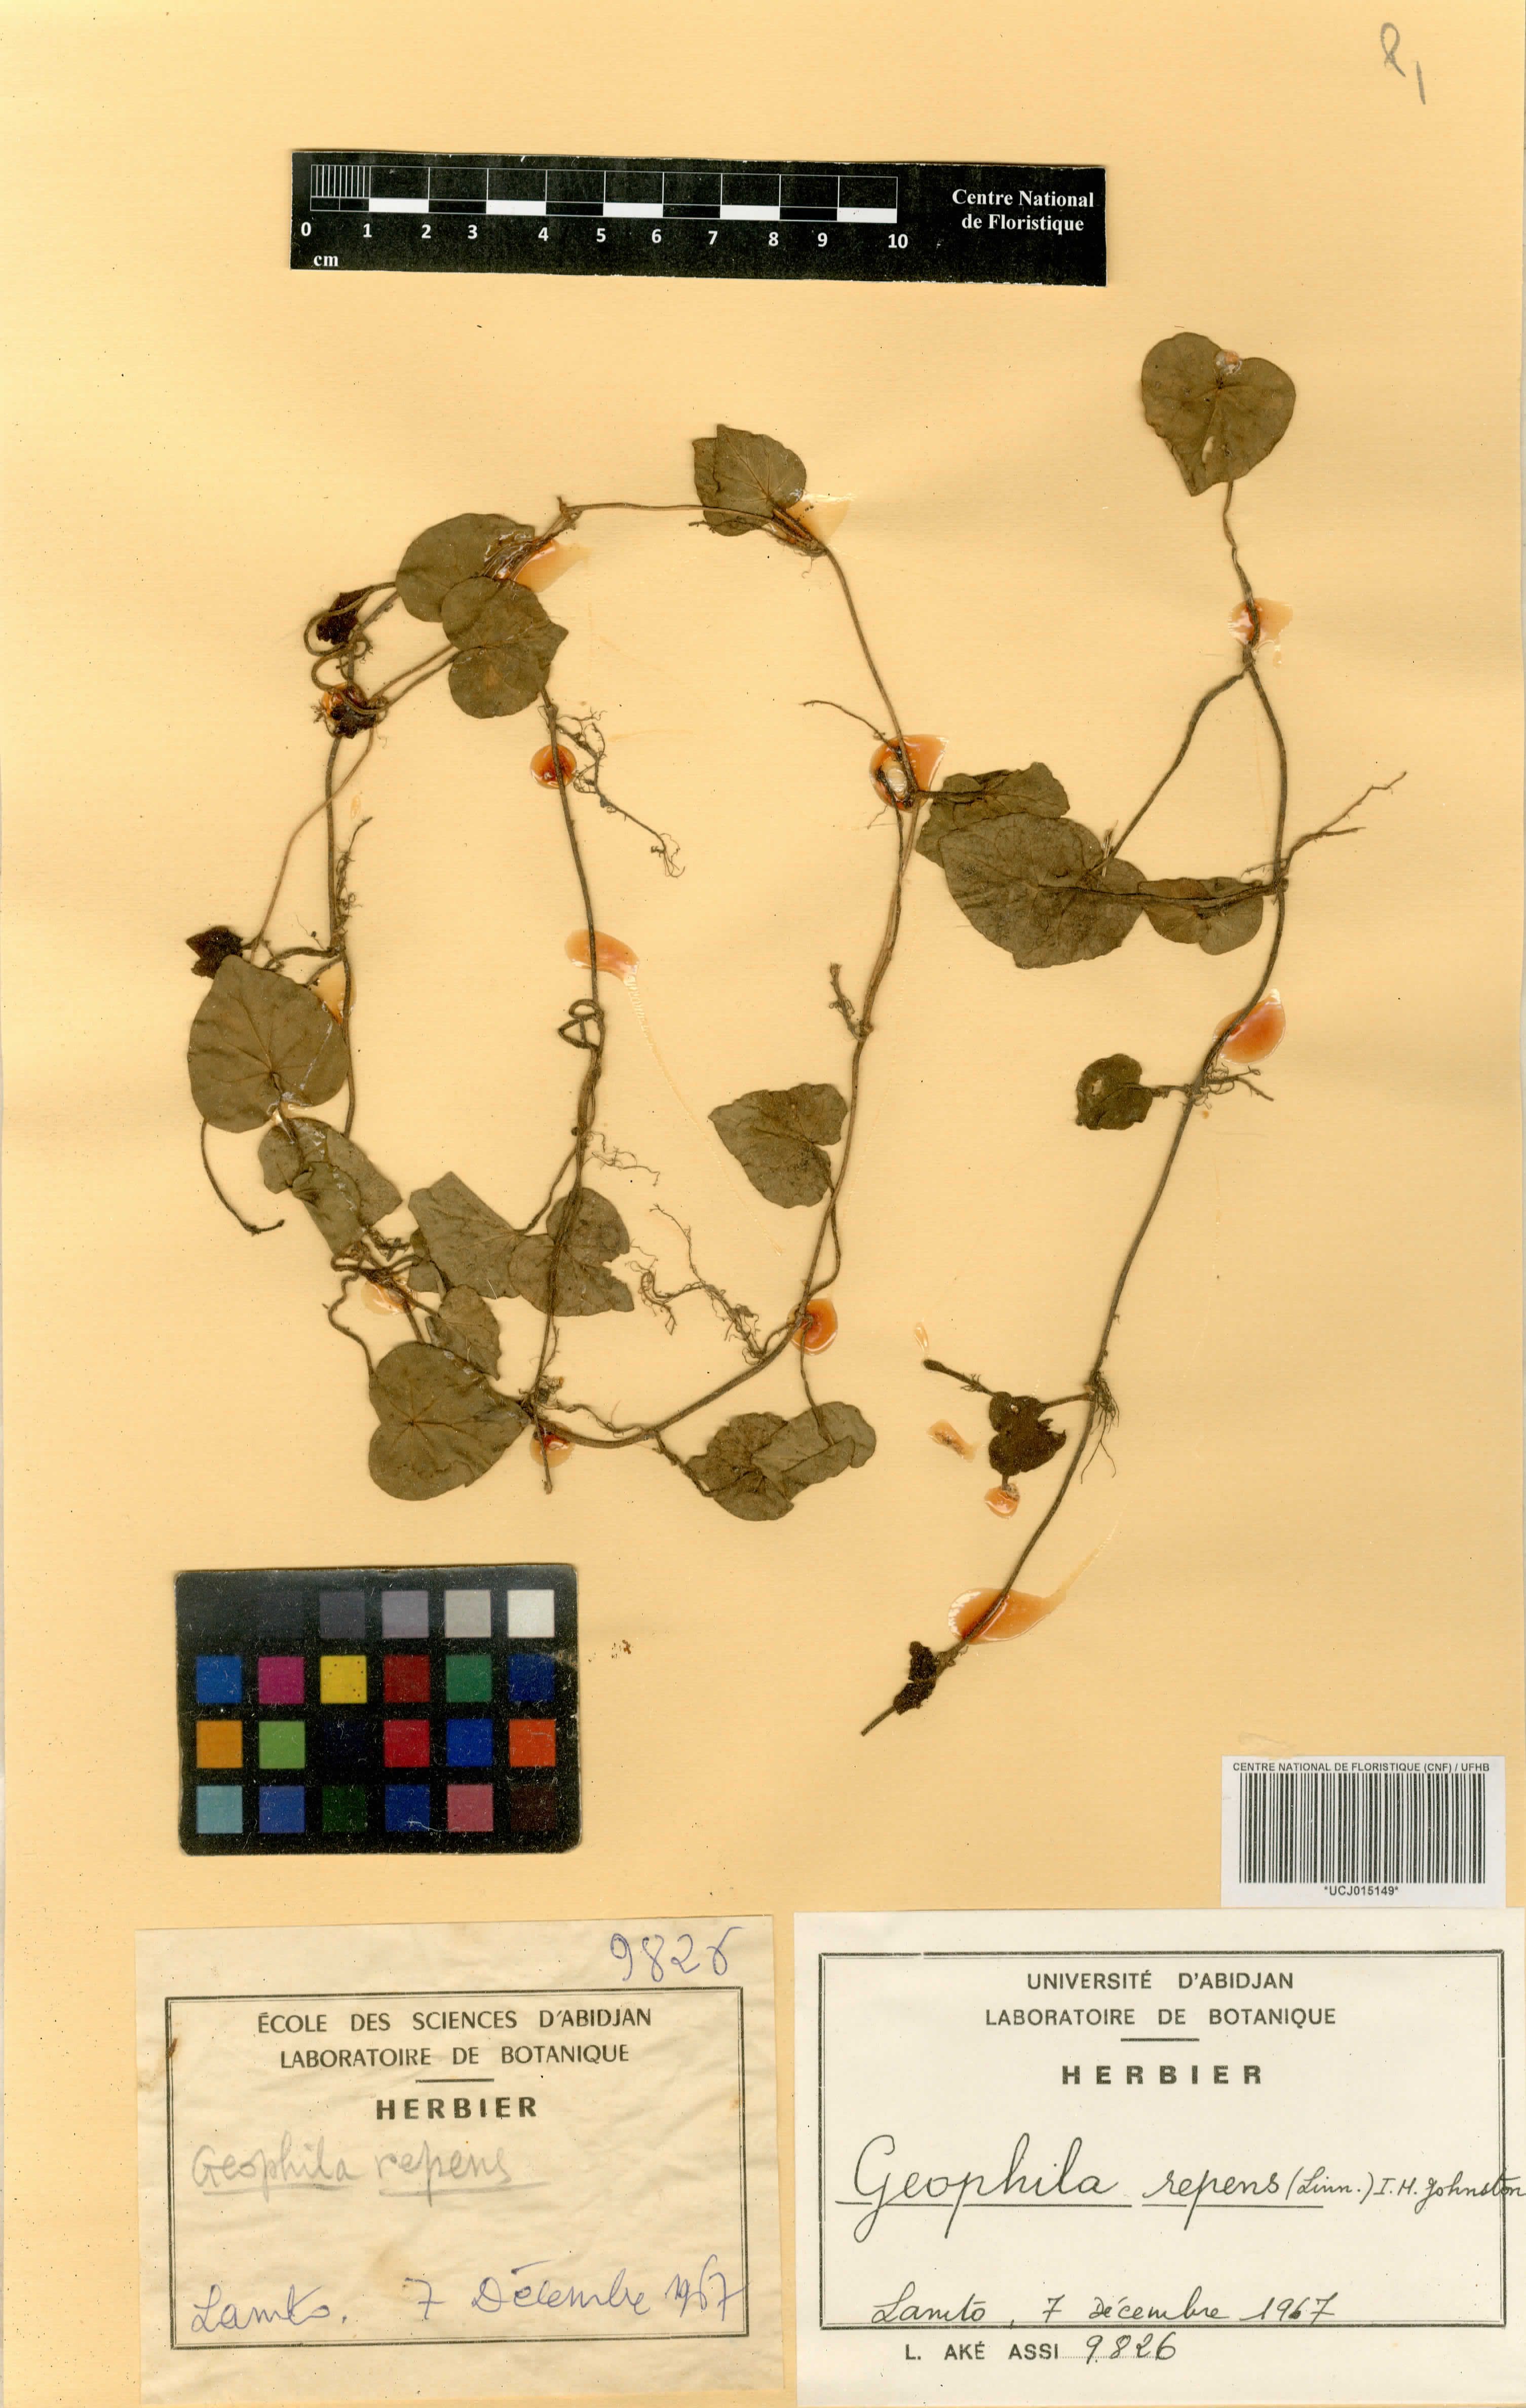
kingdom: Plantae
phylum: Tracheophyta
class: Magnoliopsida
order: Gentianales
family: Rubiaceae
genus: Geophila
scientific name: Geophila repens
